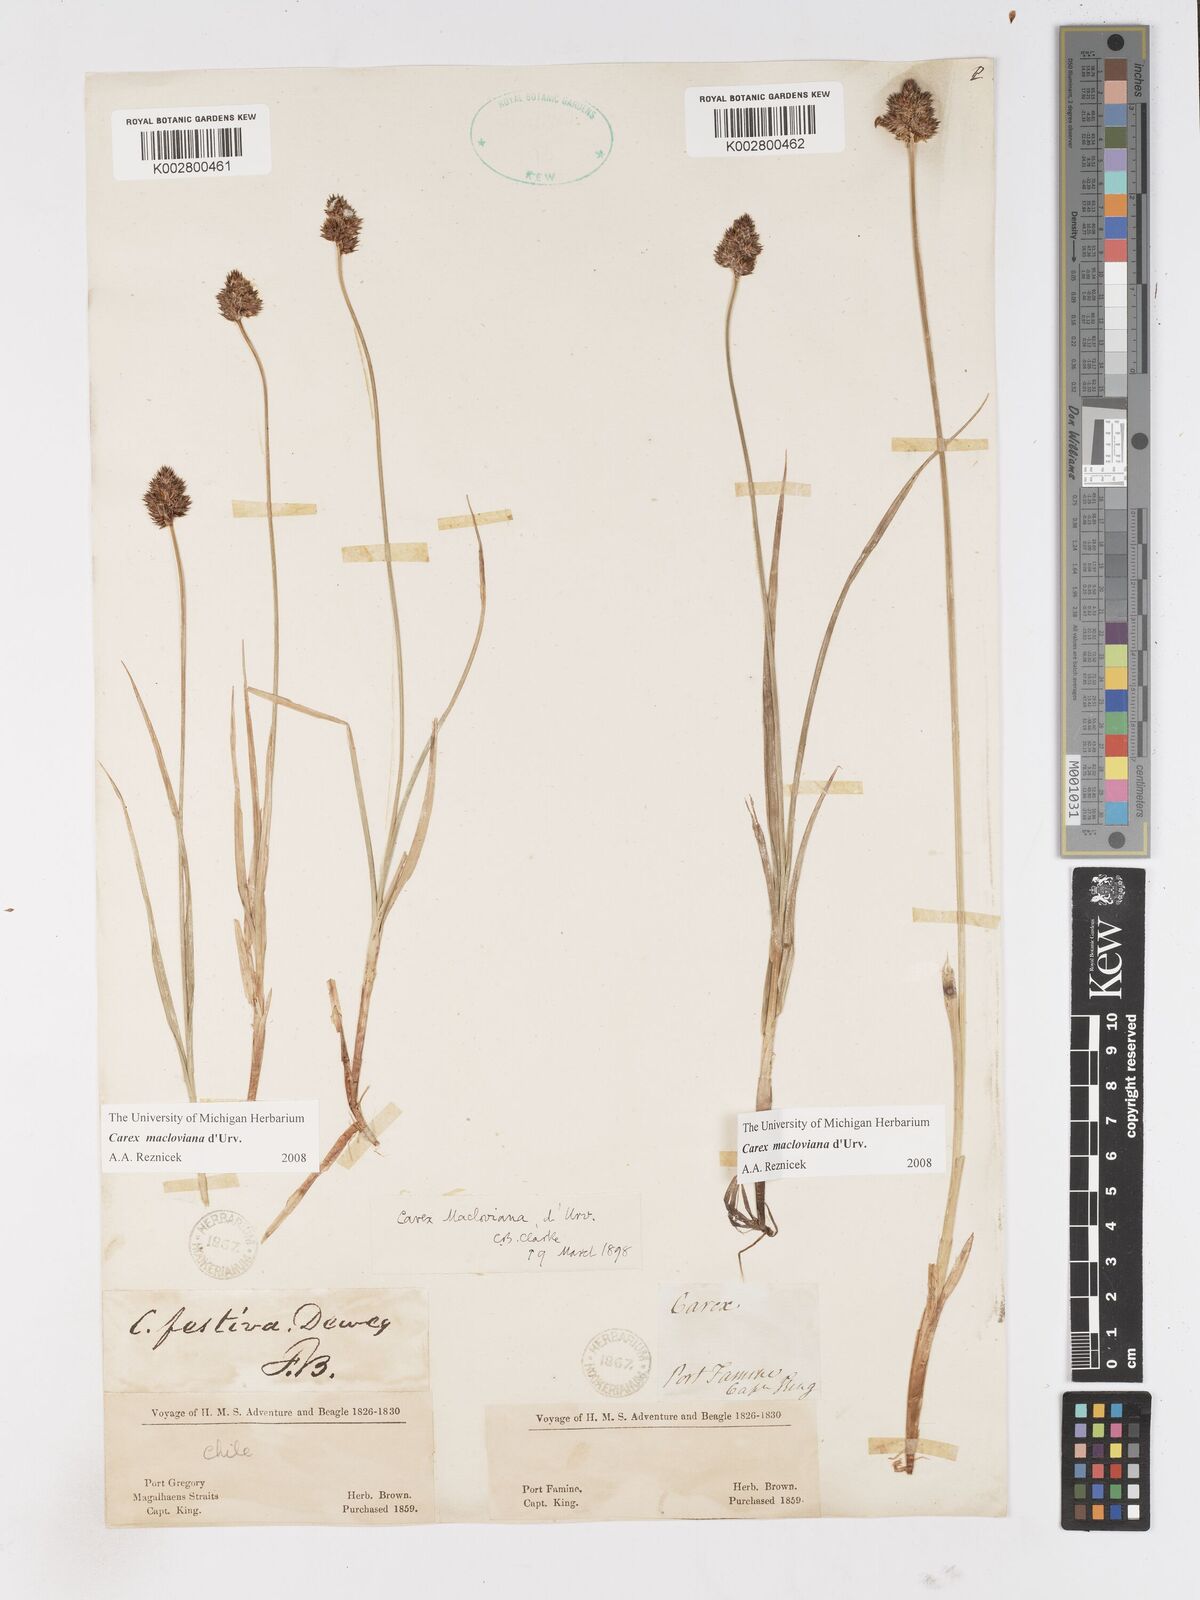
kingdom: Plantae
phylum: Tracheophyta
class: Liliopsida
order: Poales
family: Cyperaceae
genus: Carex
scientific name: Carex macloviana
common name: Falkland island sedge
